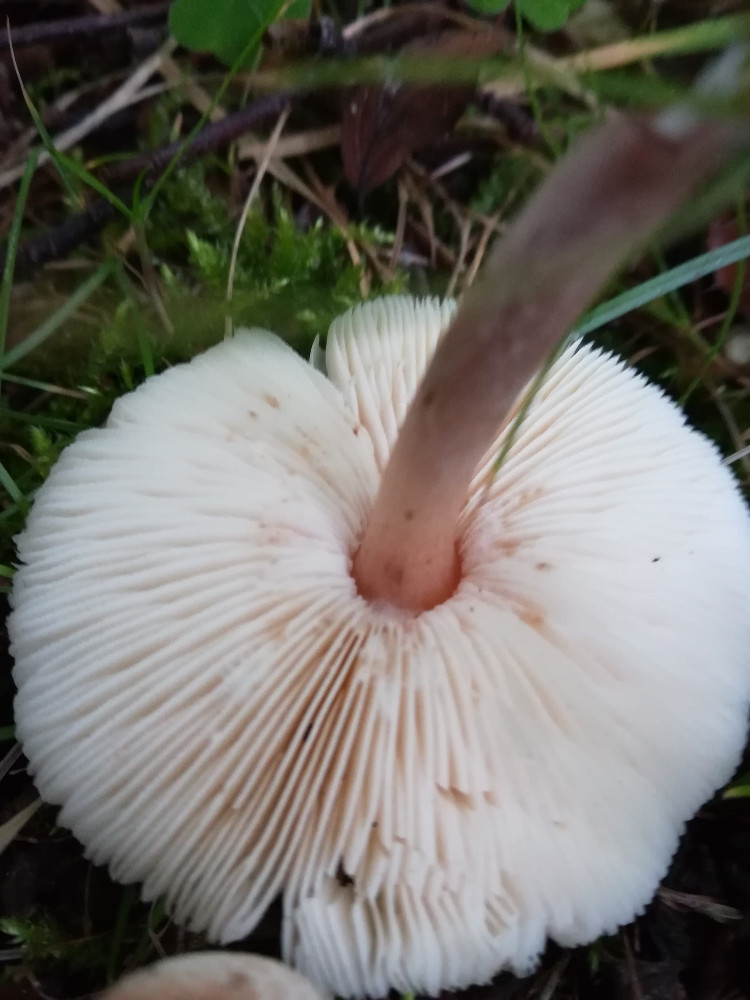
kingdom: Fungi
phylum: Basidiomycota
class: Agaricomycetes
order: Agaricales
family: Agaricaceae
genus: Lepiota
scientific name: Lepiota cristata
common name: stinkende parasolhat
